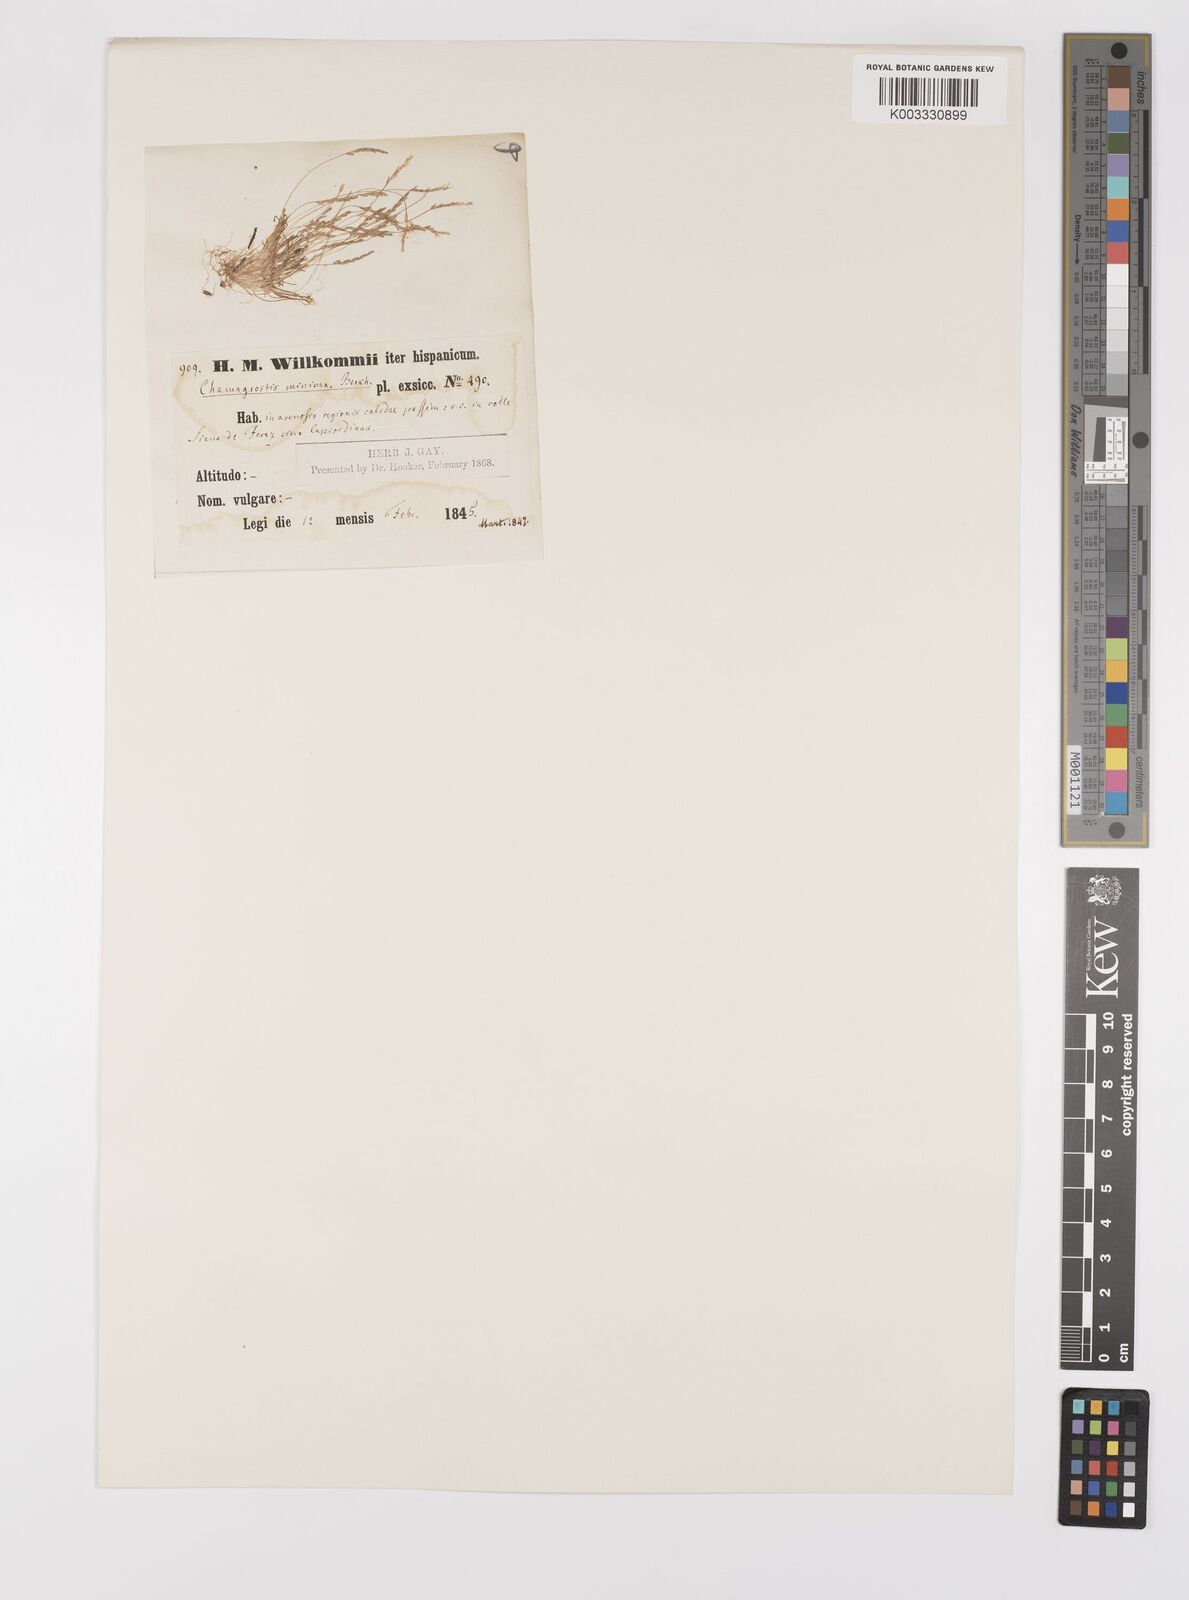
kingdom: Plantae
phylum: Tracheophyta
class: Liliopsida
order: Poales
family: Poaceae
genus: Mibora
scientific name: Mibora minima
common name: Early sand-grass
